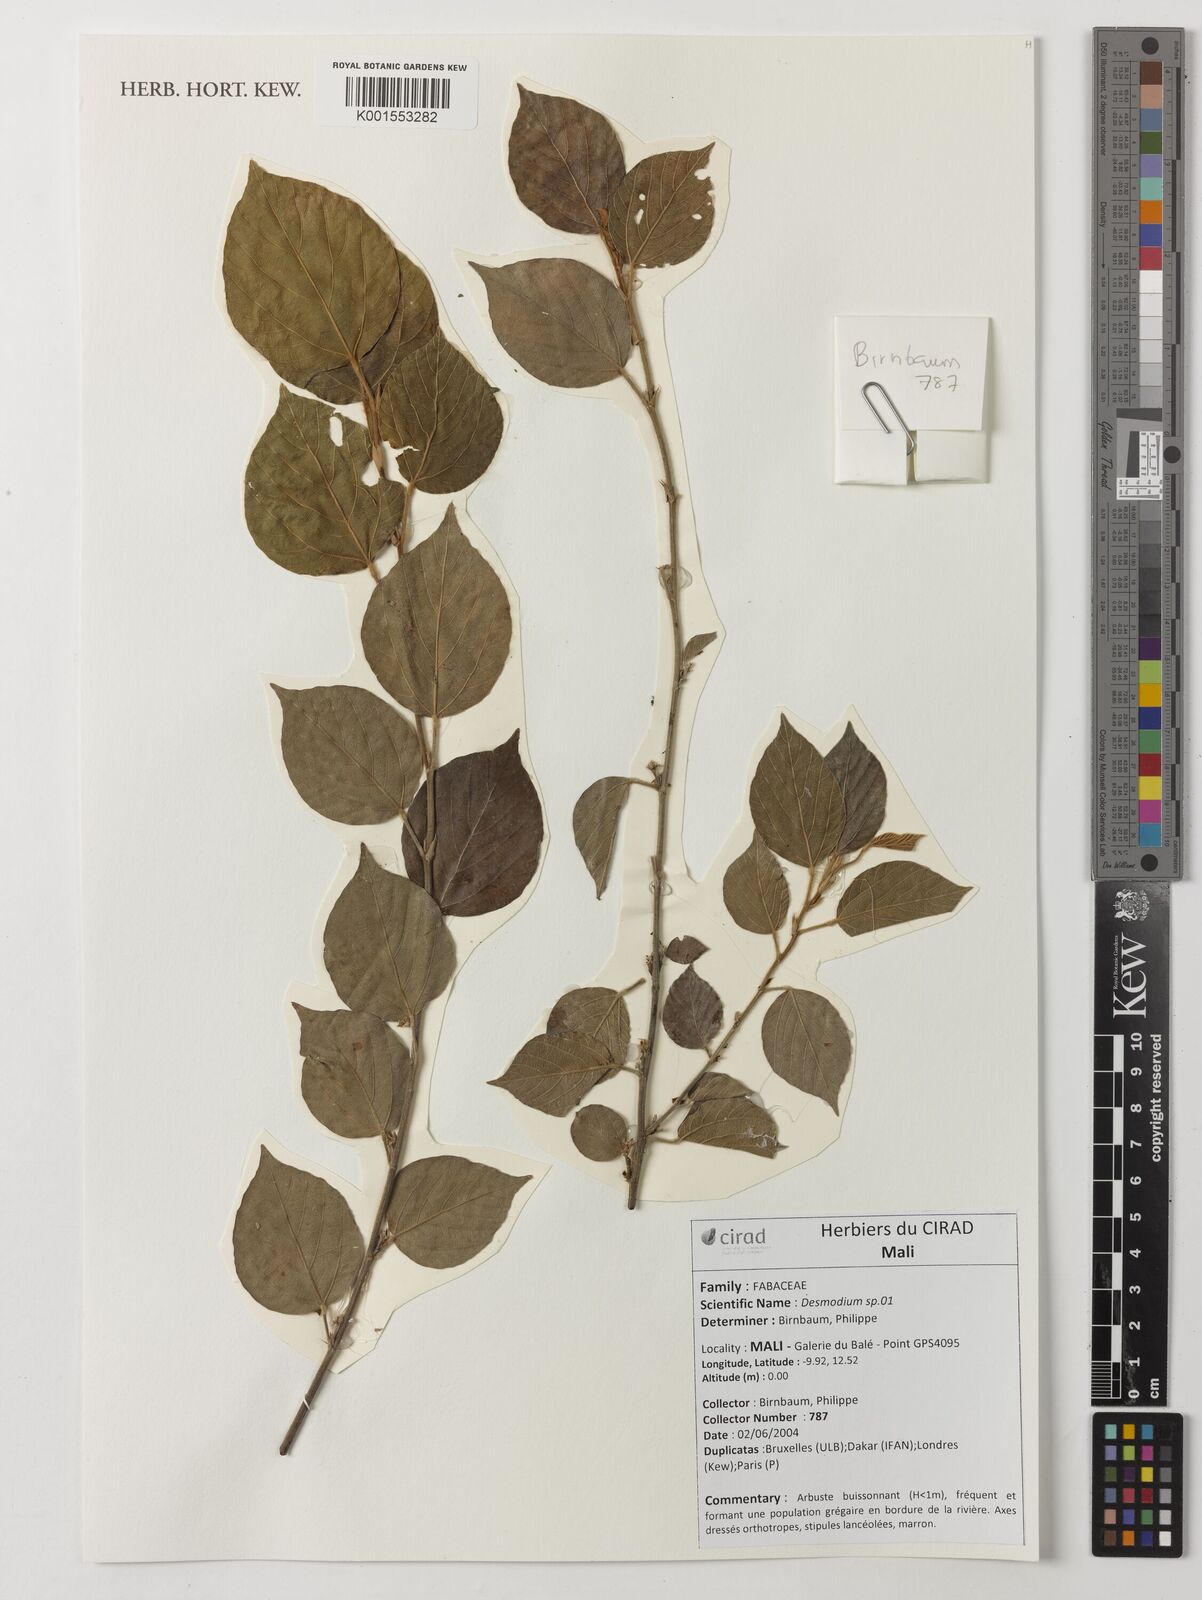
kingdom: Plantae
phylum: Tracheophyta
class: Magnoliopsida
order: Fabales
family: Fabaceae
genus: Flemingia
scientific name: Flemingia faginea
